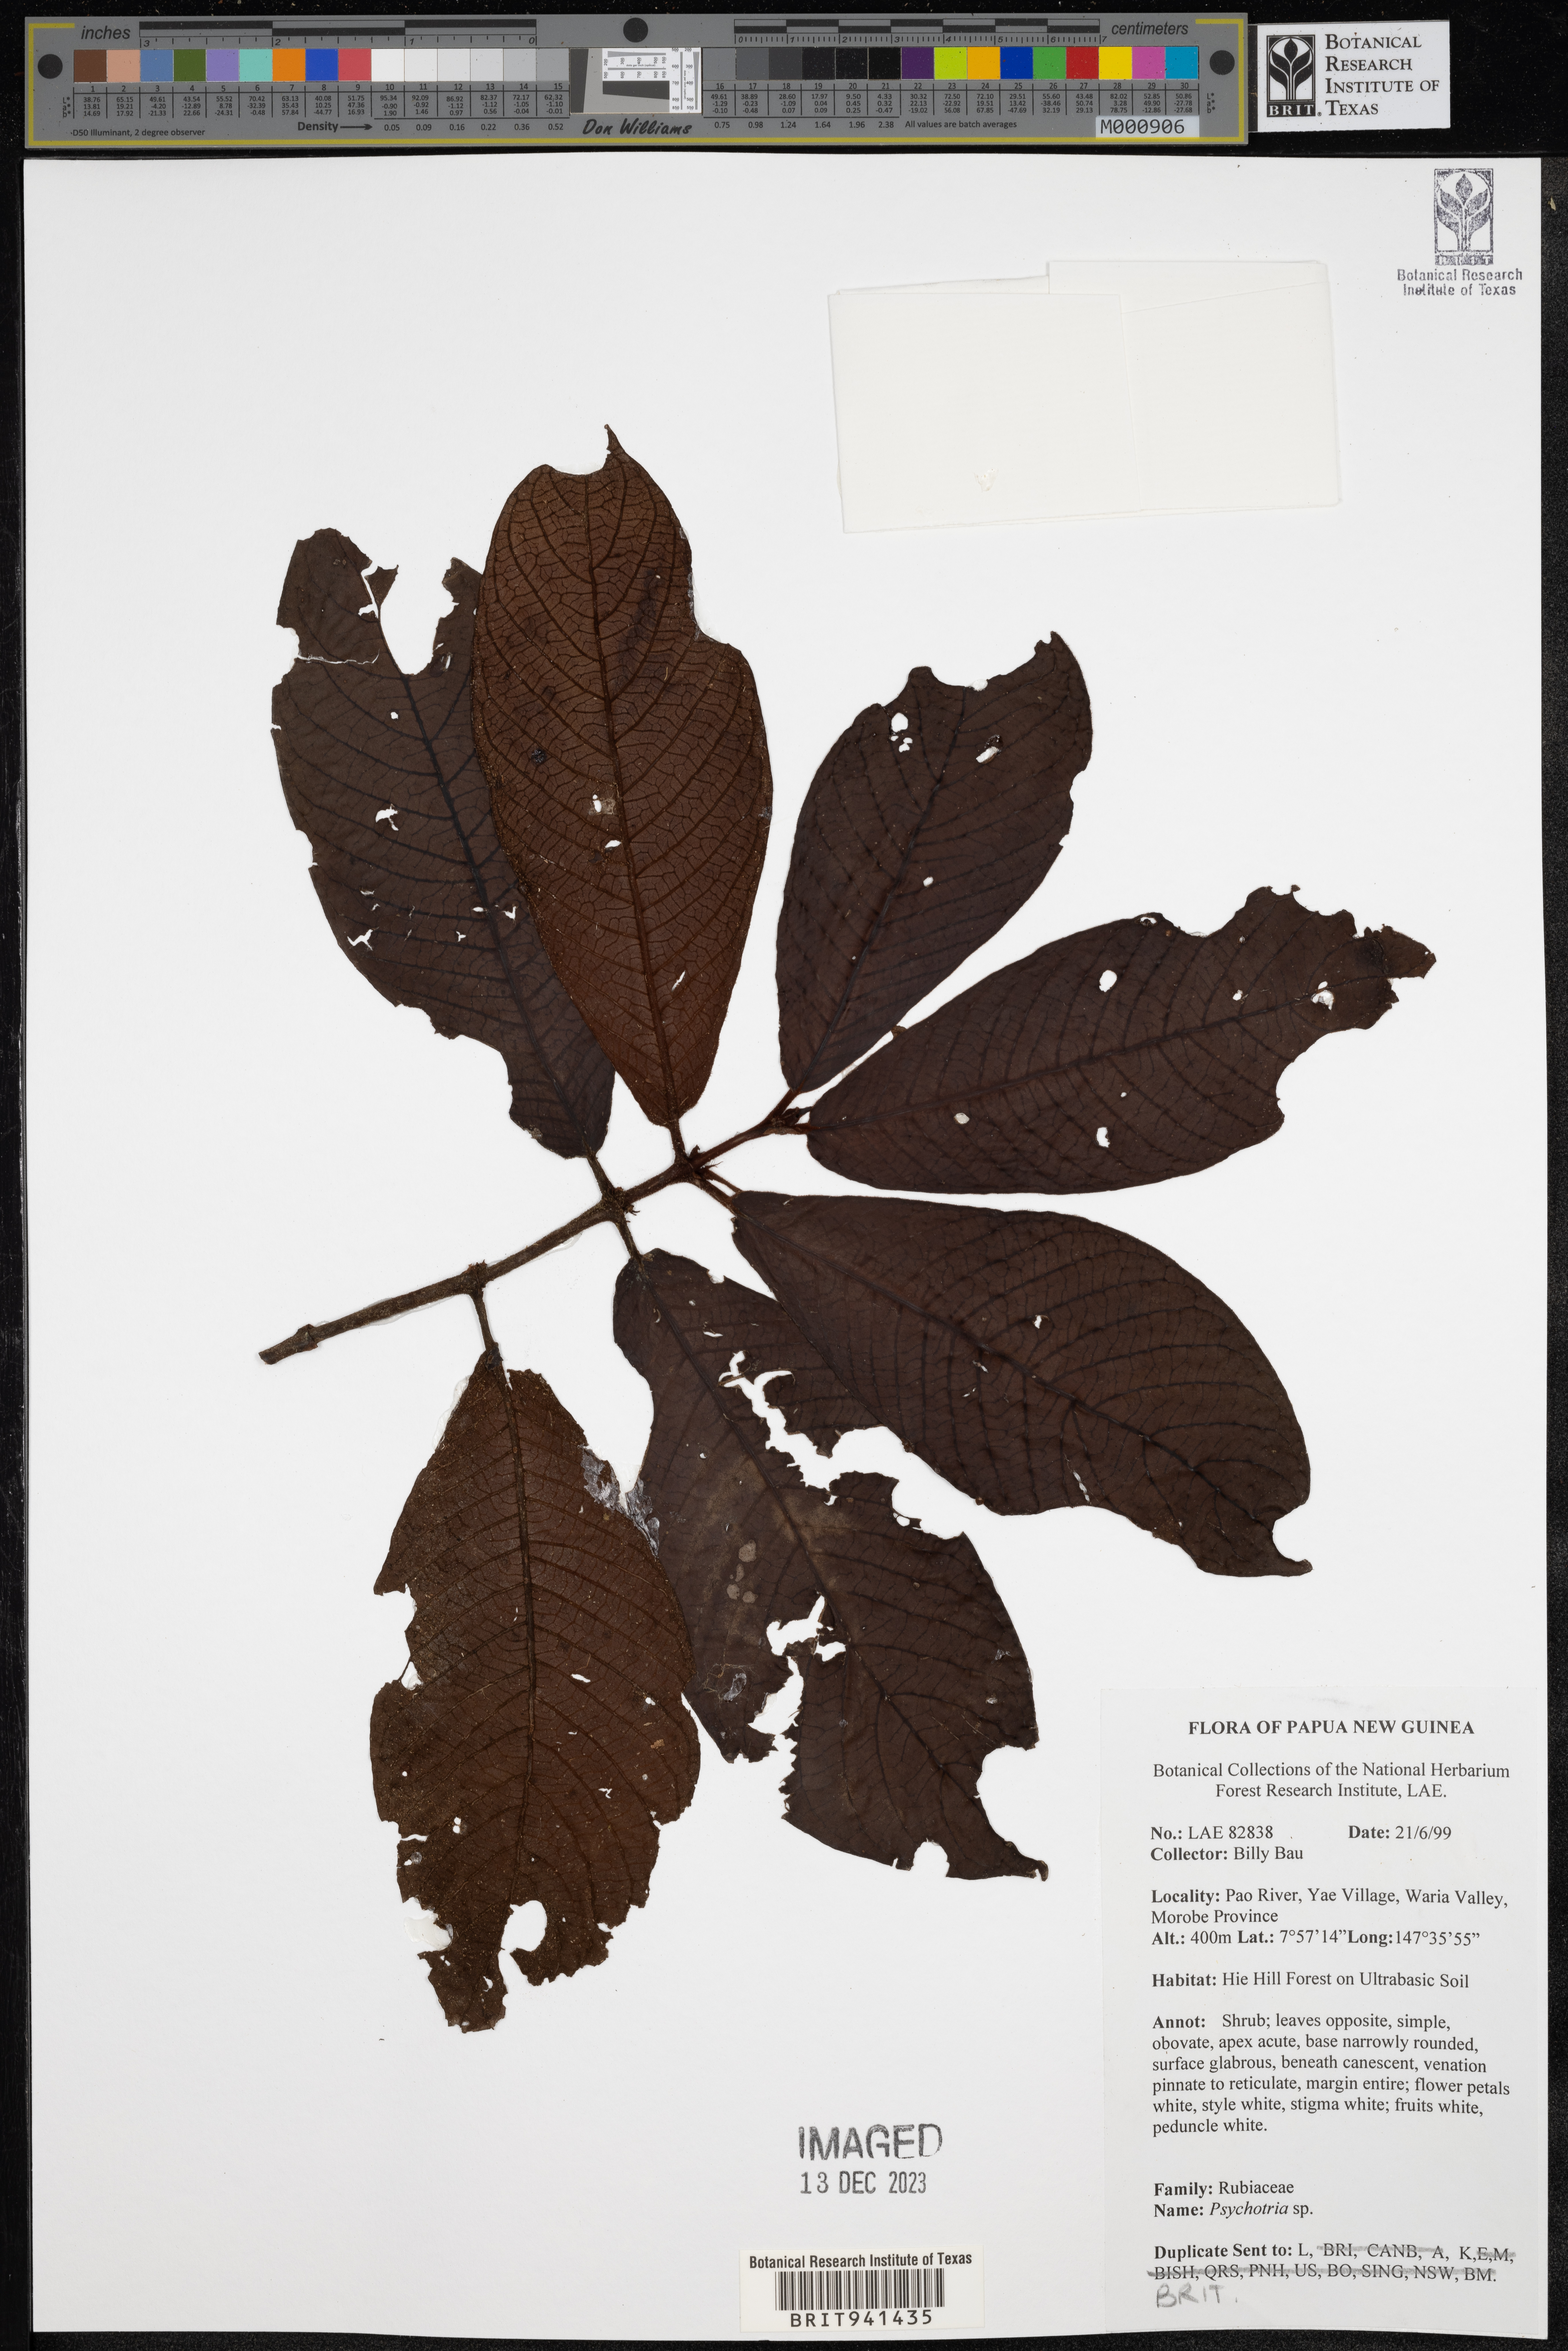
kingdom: Plantae
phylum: Tracheophyta
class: Magnoliopsida
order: Gentianales
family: Rubiaceae
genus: Psychotria
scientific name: Psychotria
